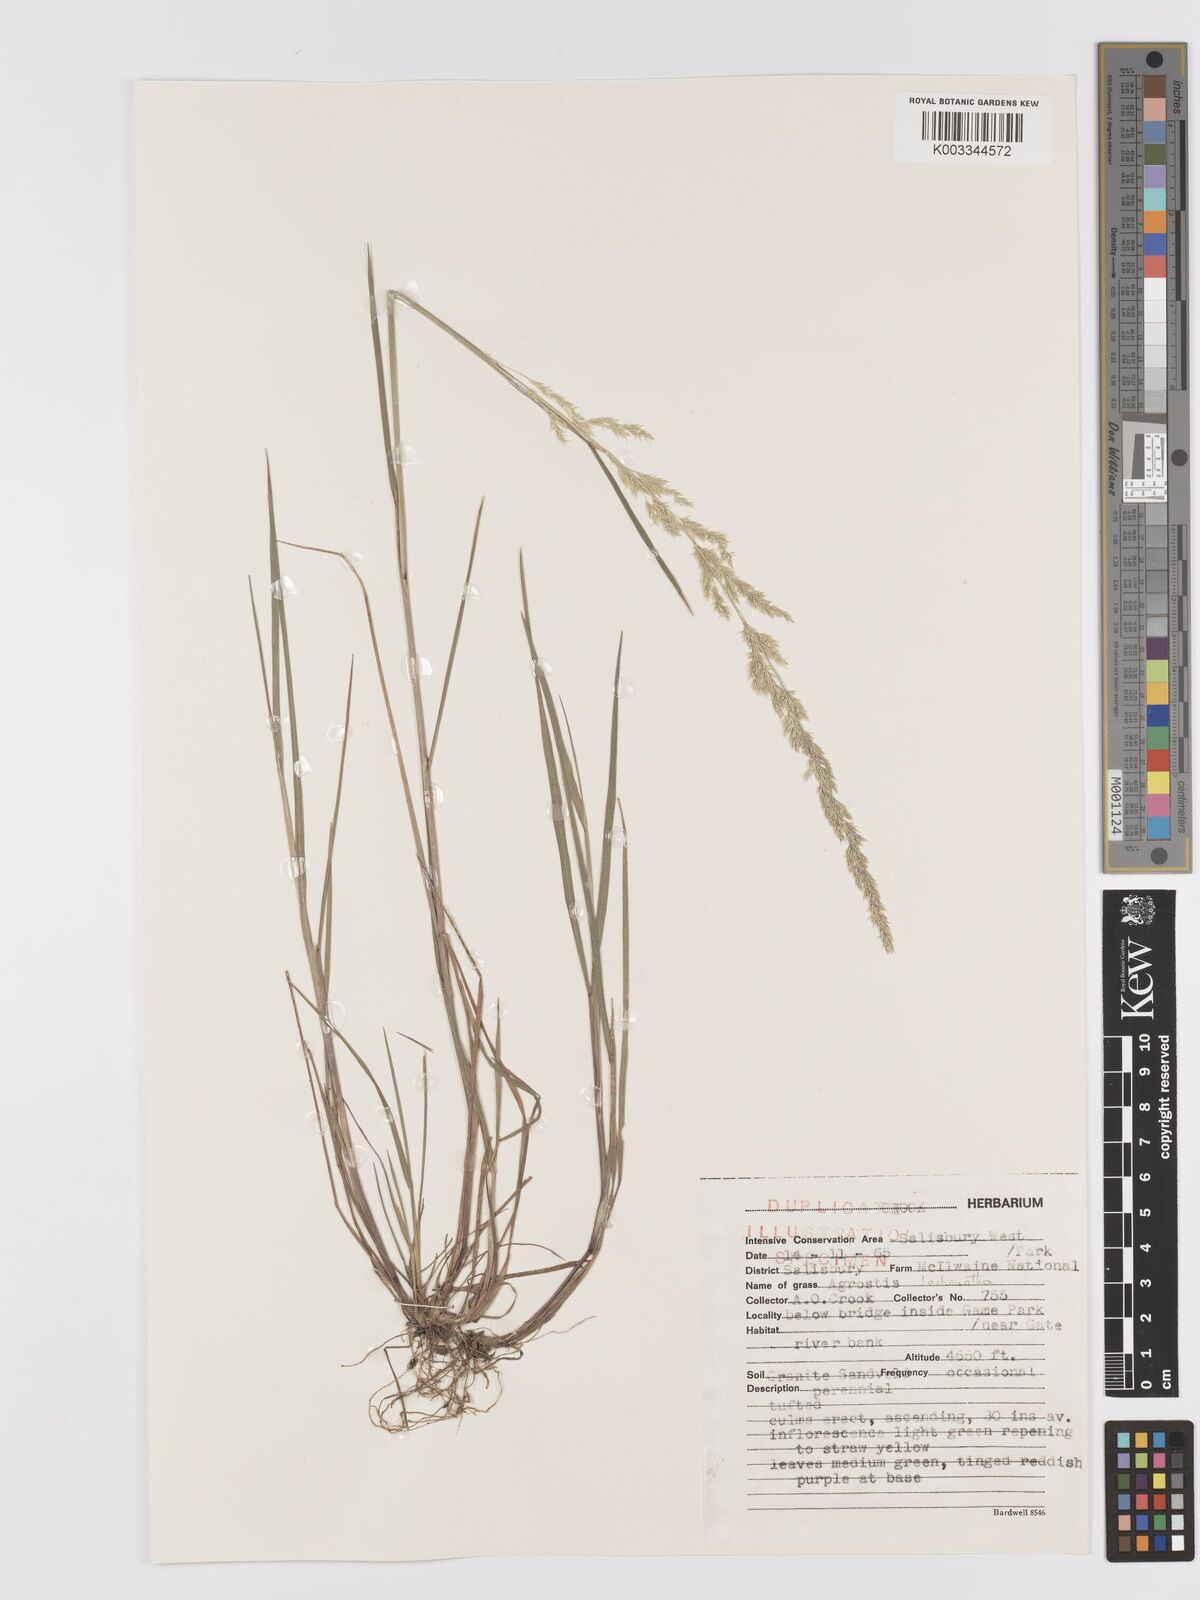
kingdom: Plantae
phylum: Tracheophyta
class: Liliopsida
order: Poales
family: Poaceae
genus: Lachnagrostis
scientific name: Lachnagrostis lachnantha
